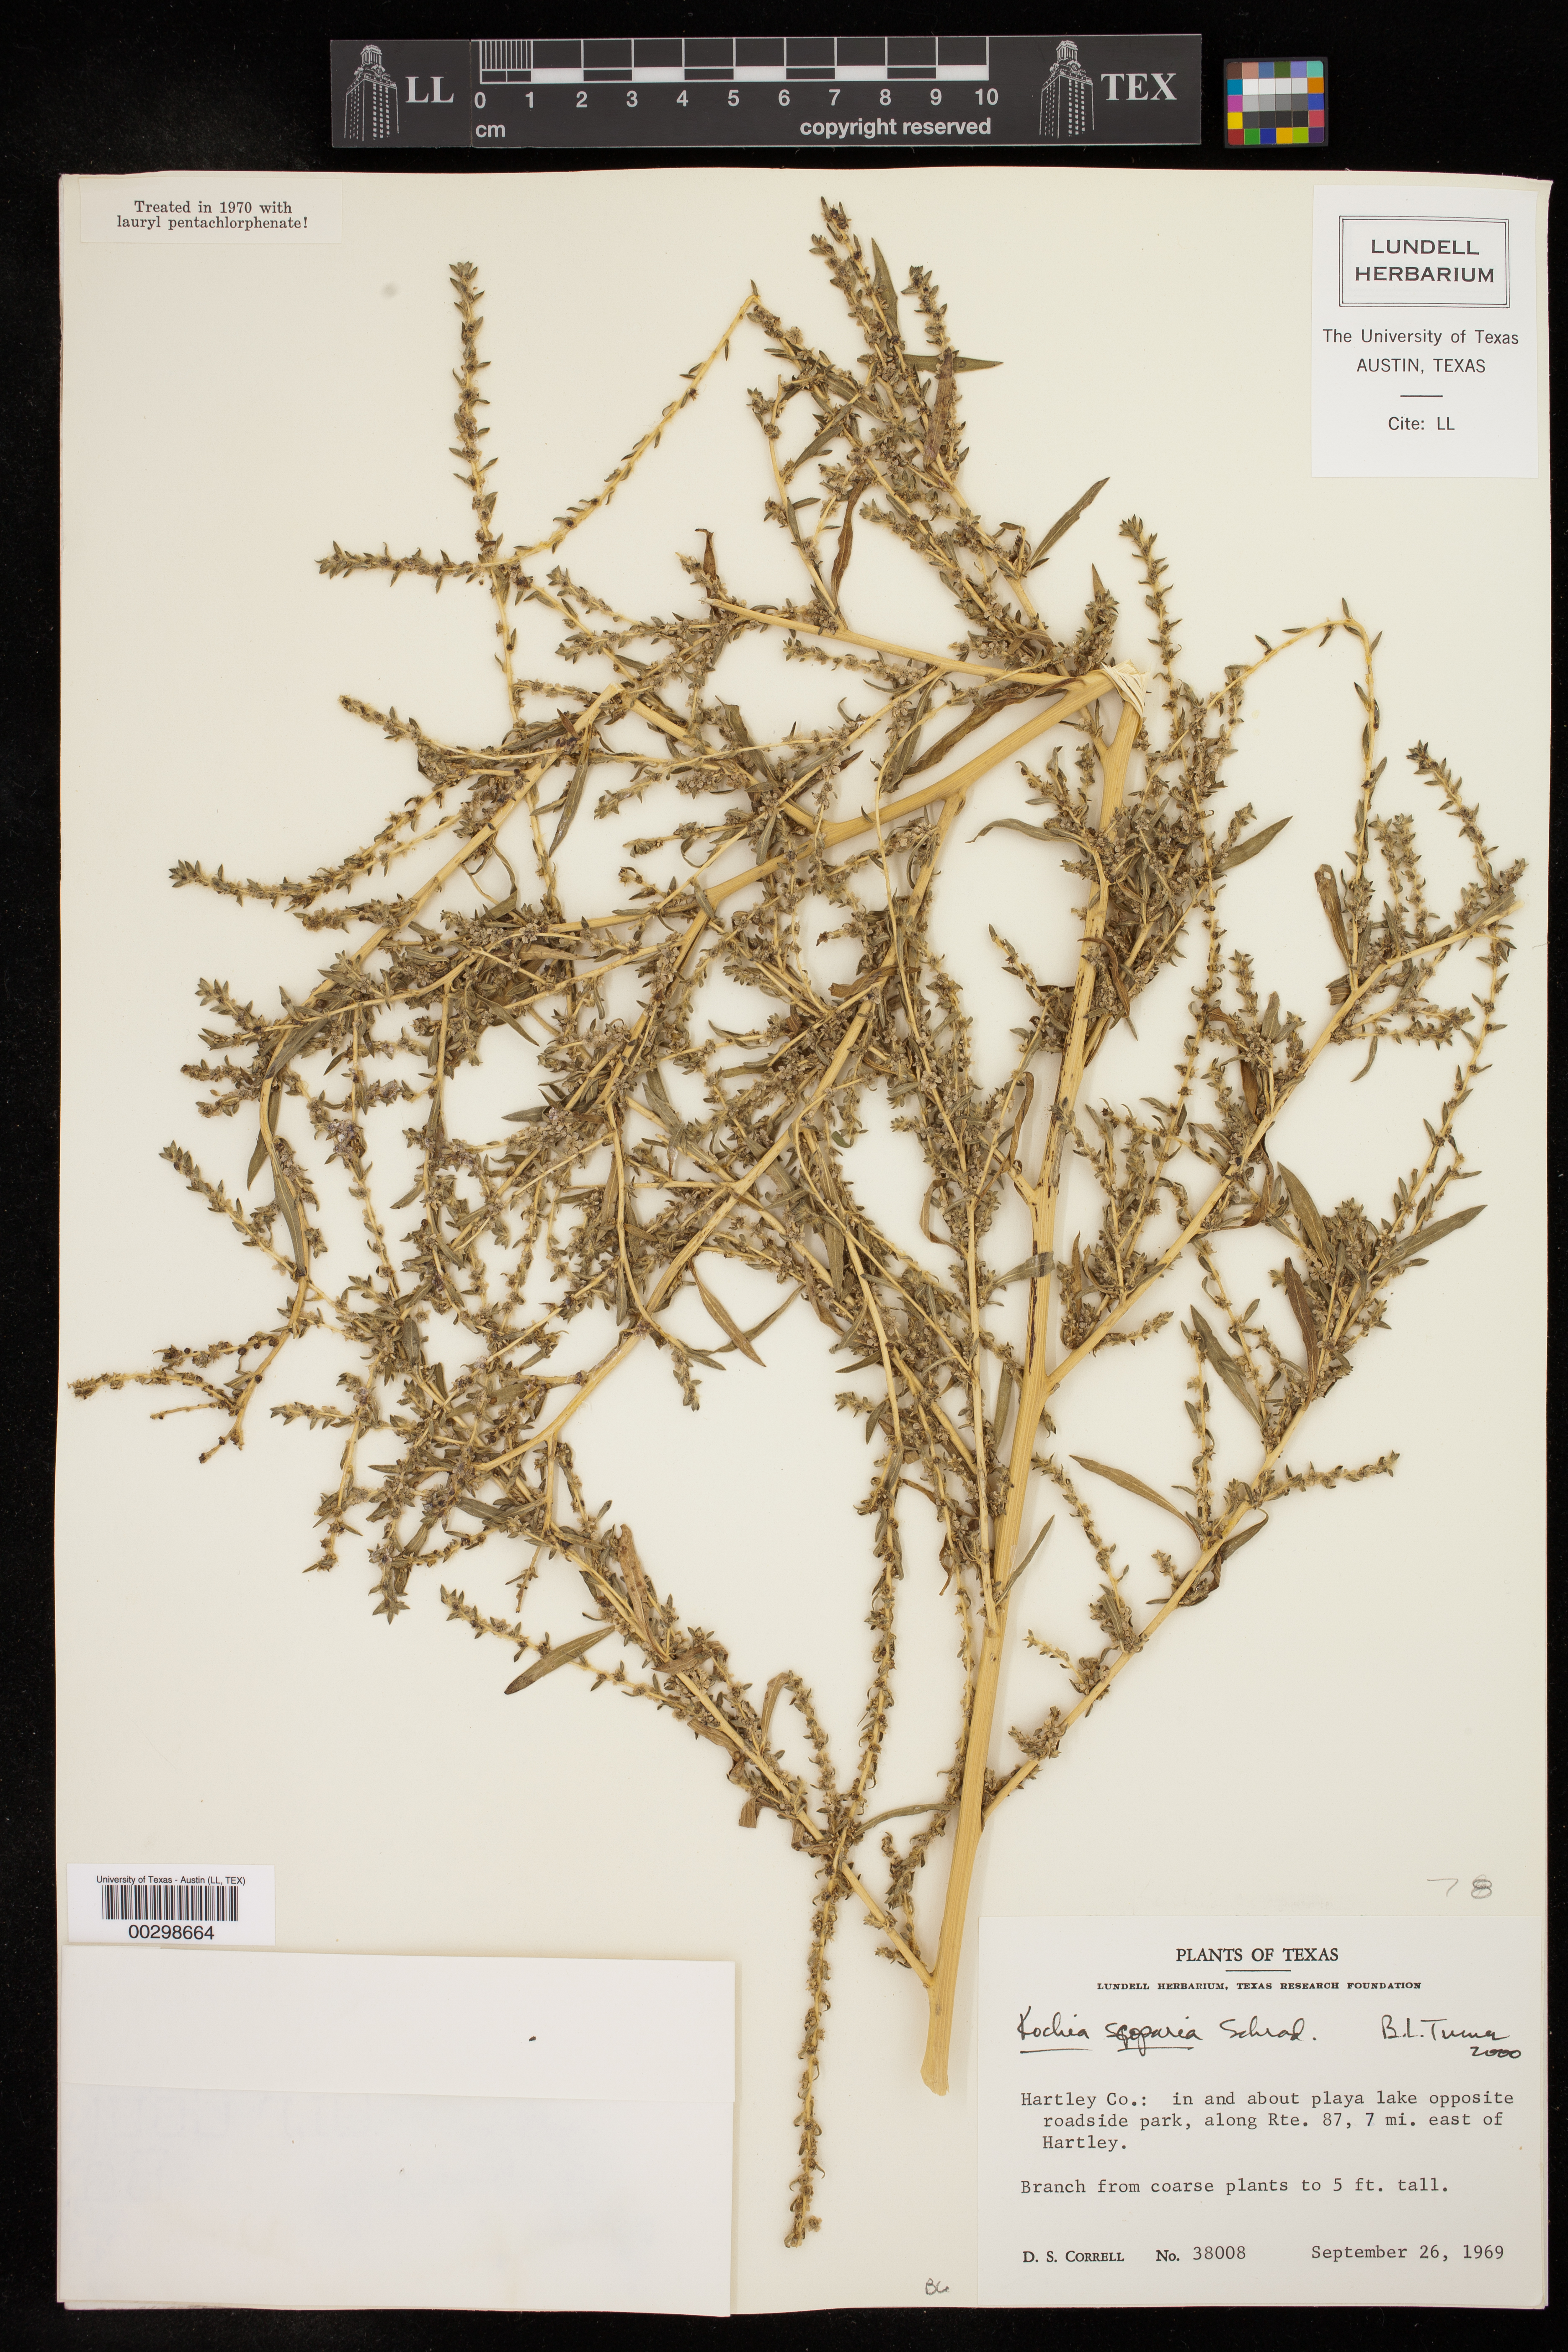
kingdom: Plantae
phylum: Tracheophyta
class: Magnoliopsida
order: Caryophyllales
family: Amaranthaceae
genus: Bassia
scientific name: Bassia scoparia
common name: Belvedere
